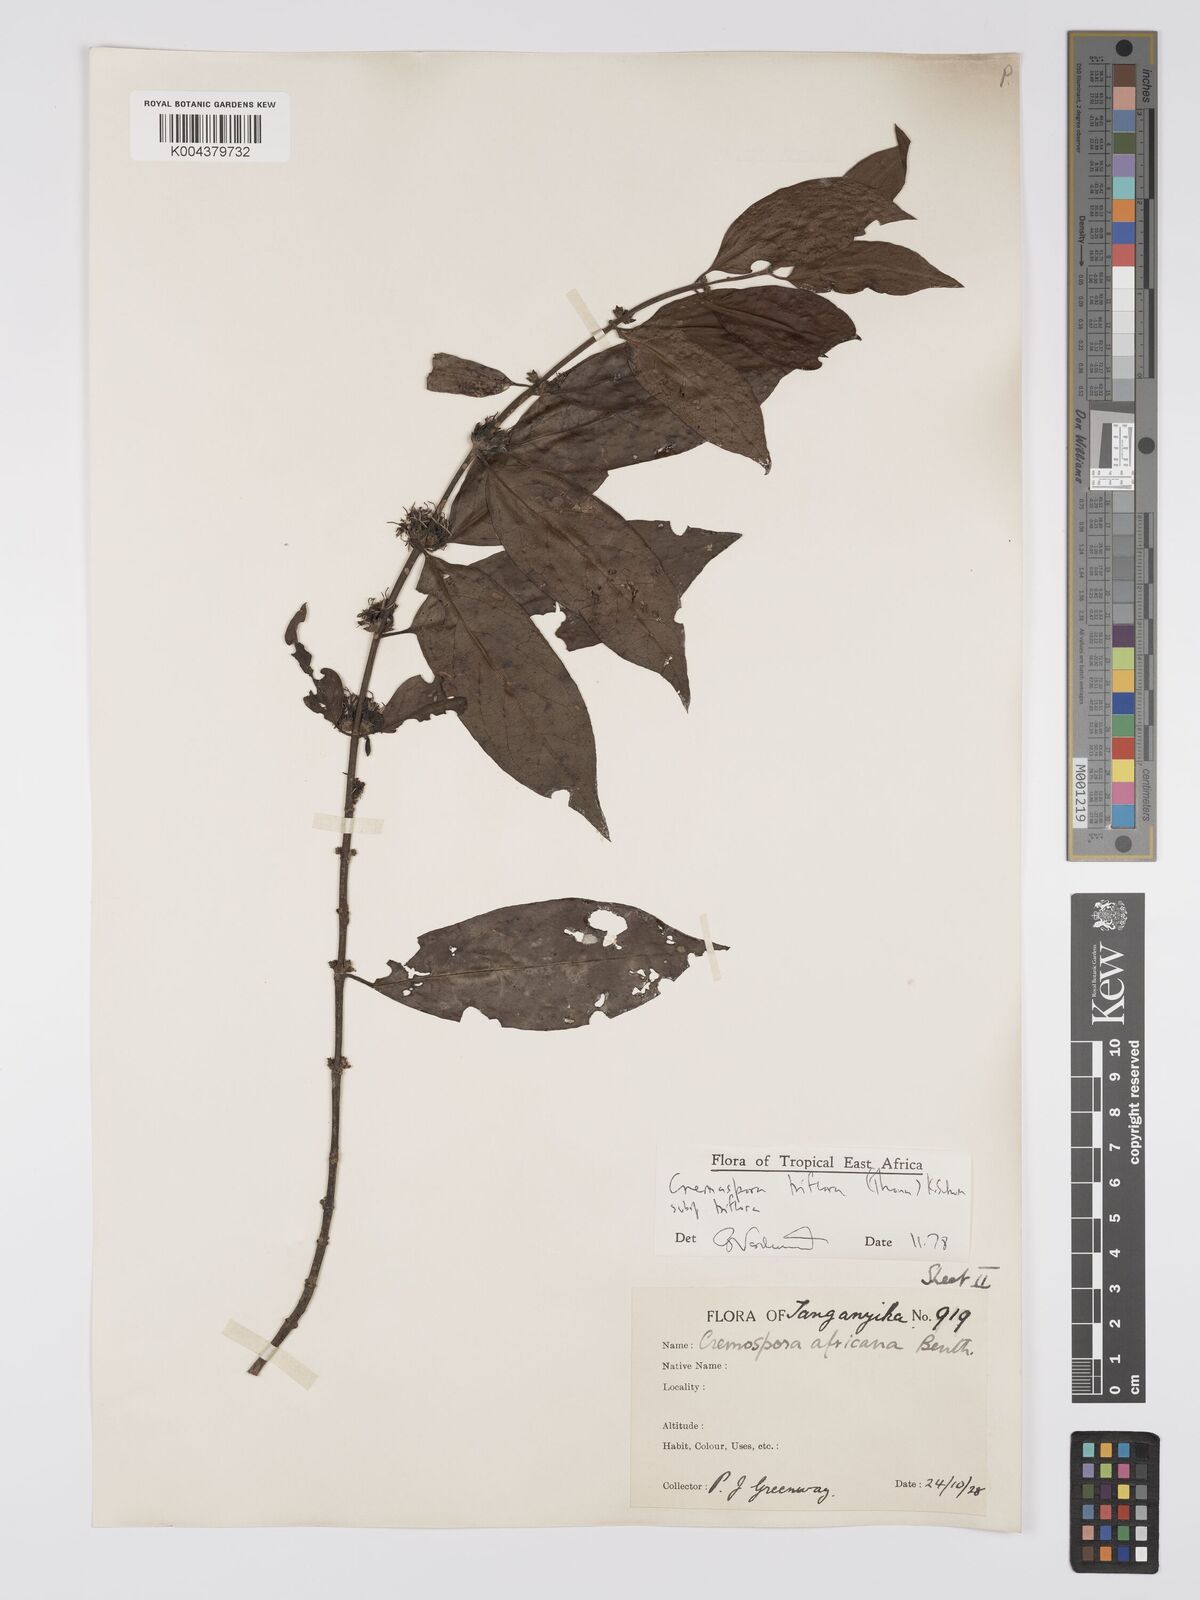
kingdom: Plantae
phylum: Tracheophyta
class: Magnoliopsida
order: Gentianales
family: Rubiaceae
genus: Cremaspora
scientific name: Cremaspora triflora
